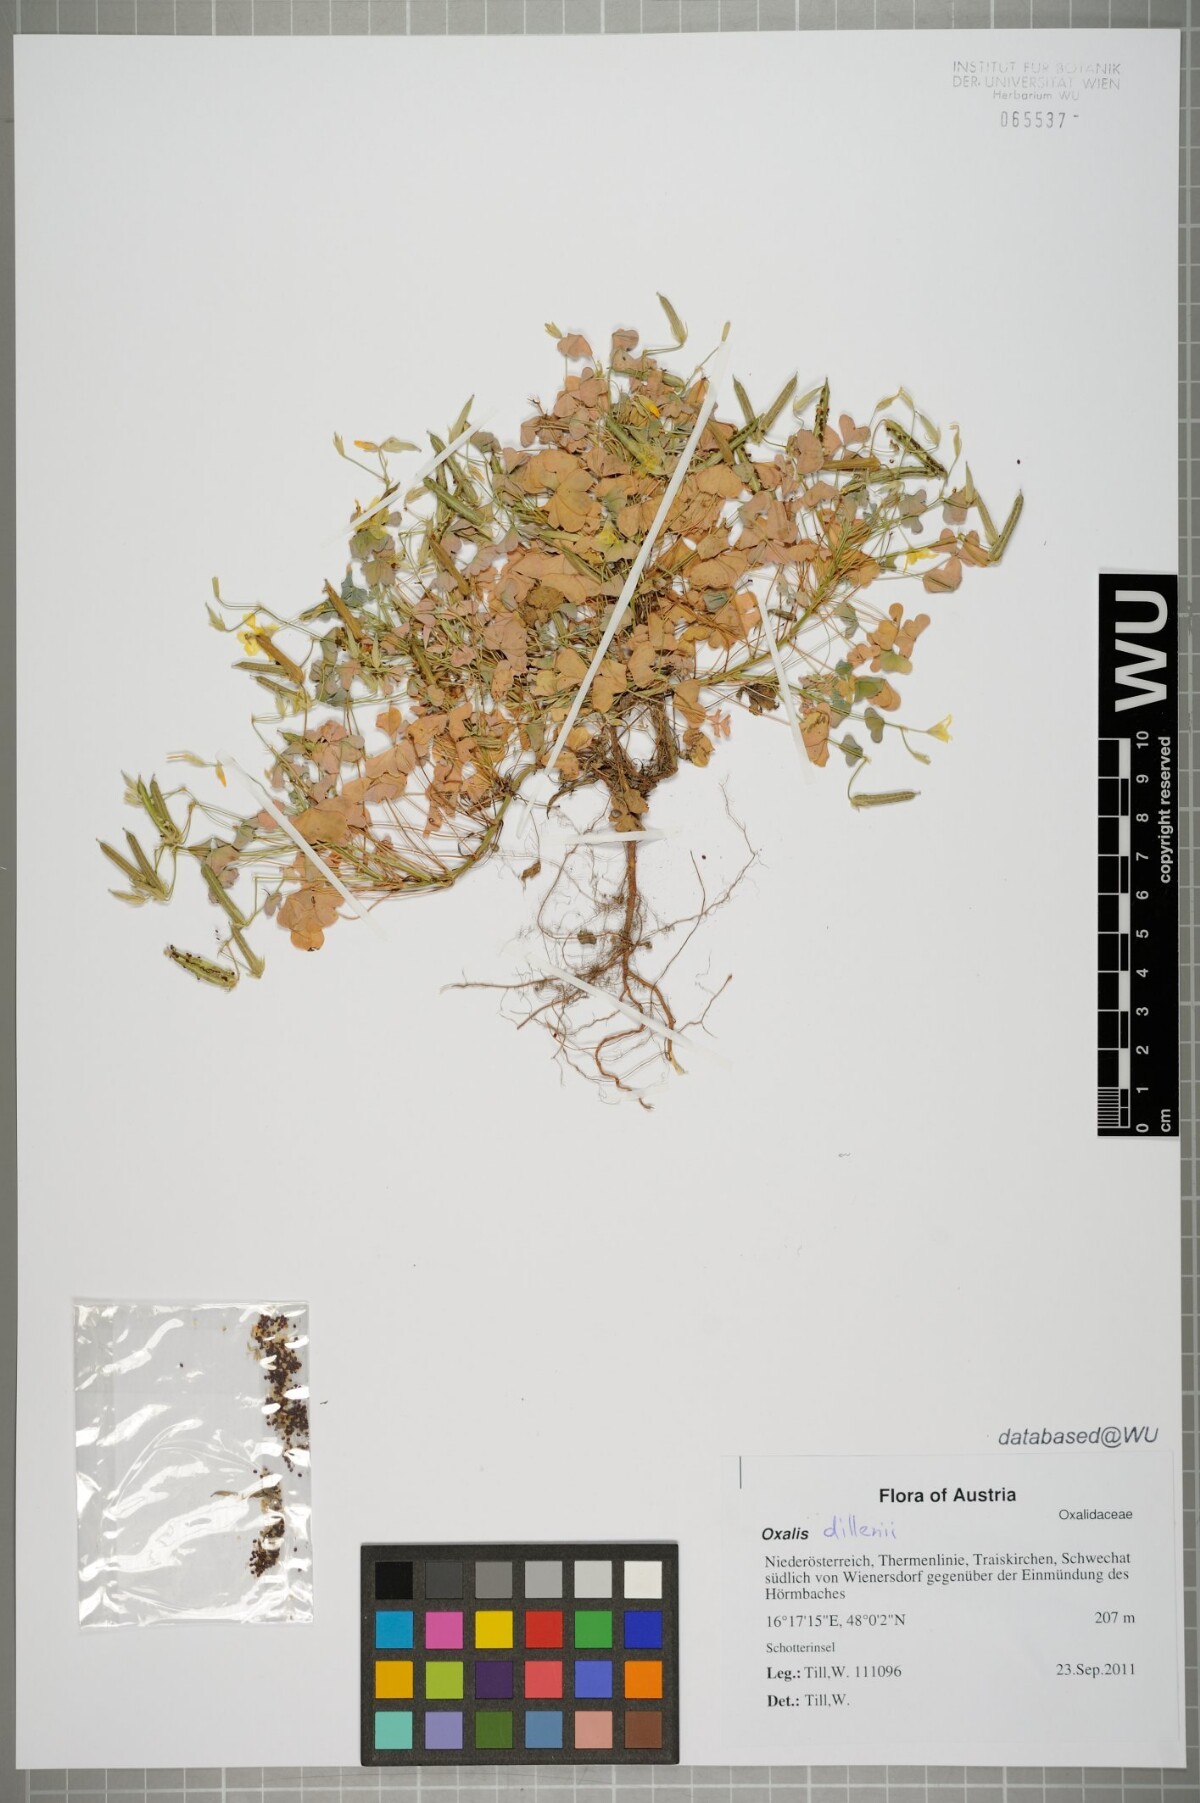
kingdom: Plantae
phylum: Tracheophyta
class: Magnoliopsida
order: Oxalidales
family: Oxalidaceae
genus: Oxalis
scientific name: Oxalis dillenii
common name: Sussex yellow-sorrel
